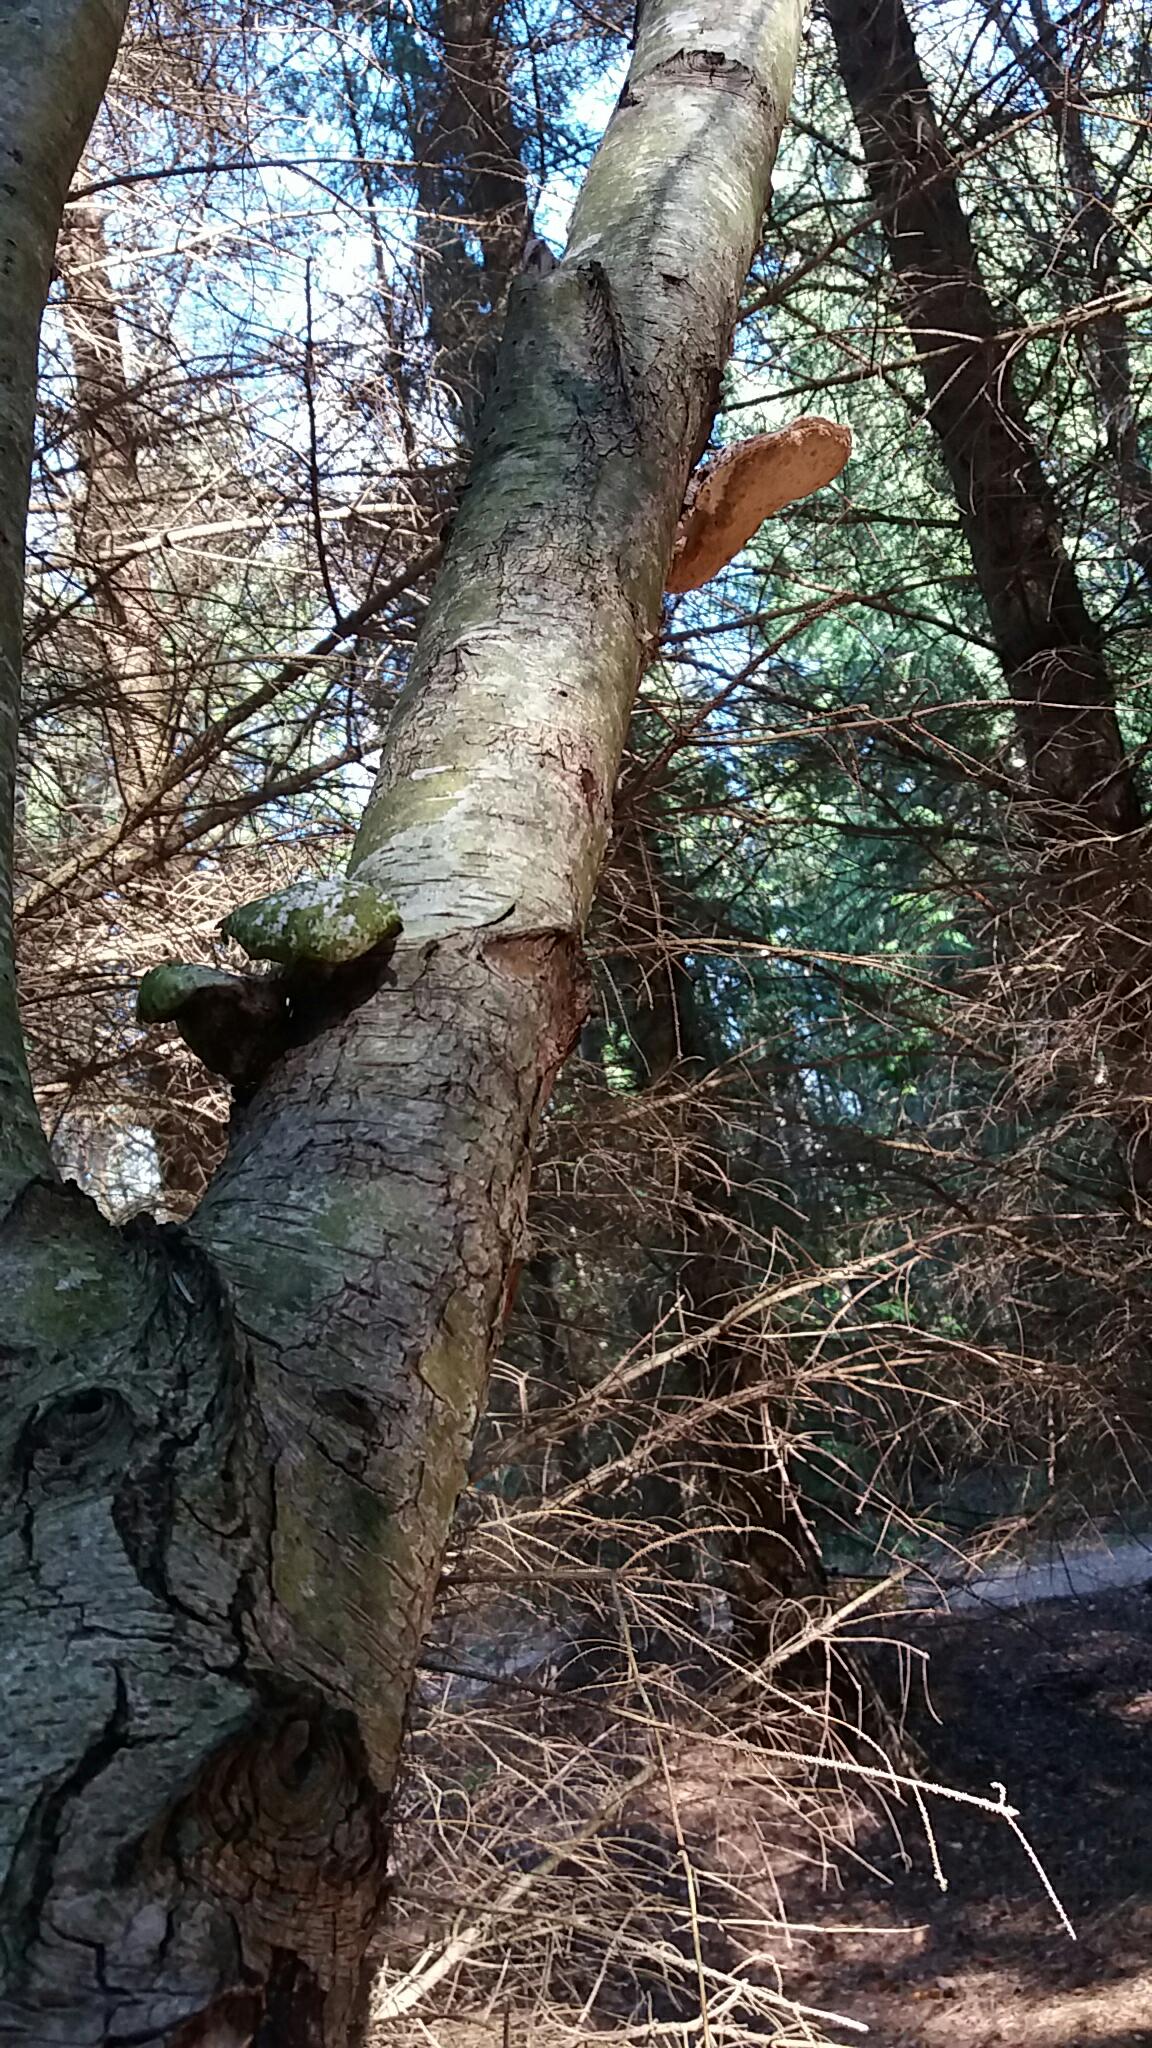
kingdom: Fungi
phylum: Basidiomycota
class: Agaricomycetes
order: Polyporales
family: Fomitopsidaceae
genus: Fomitopsis
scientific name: Fomitopsis betulina
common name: birkeporesvamp
